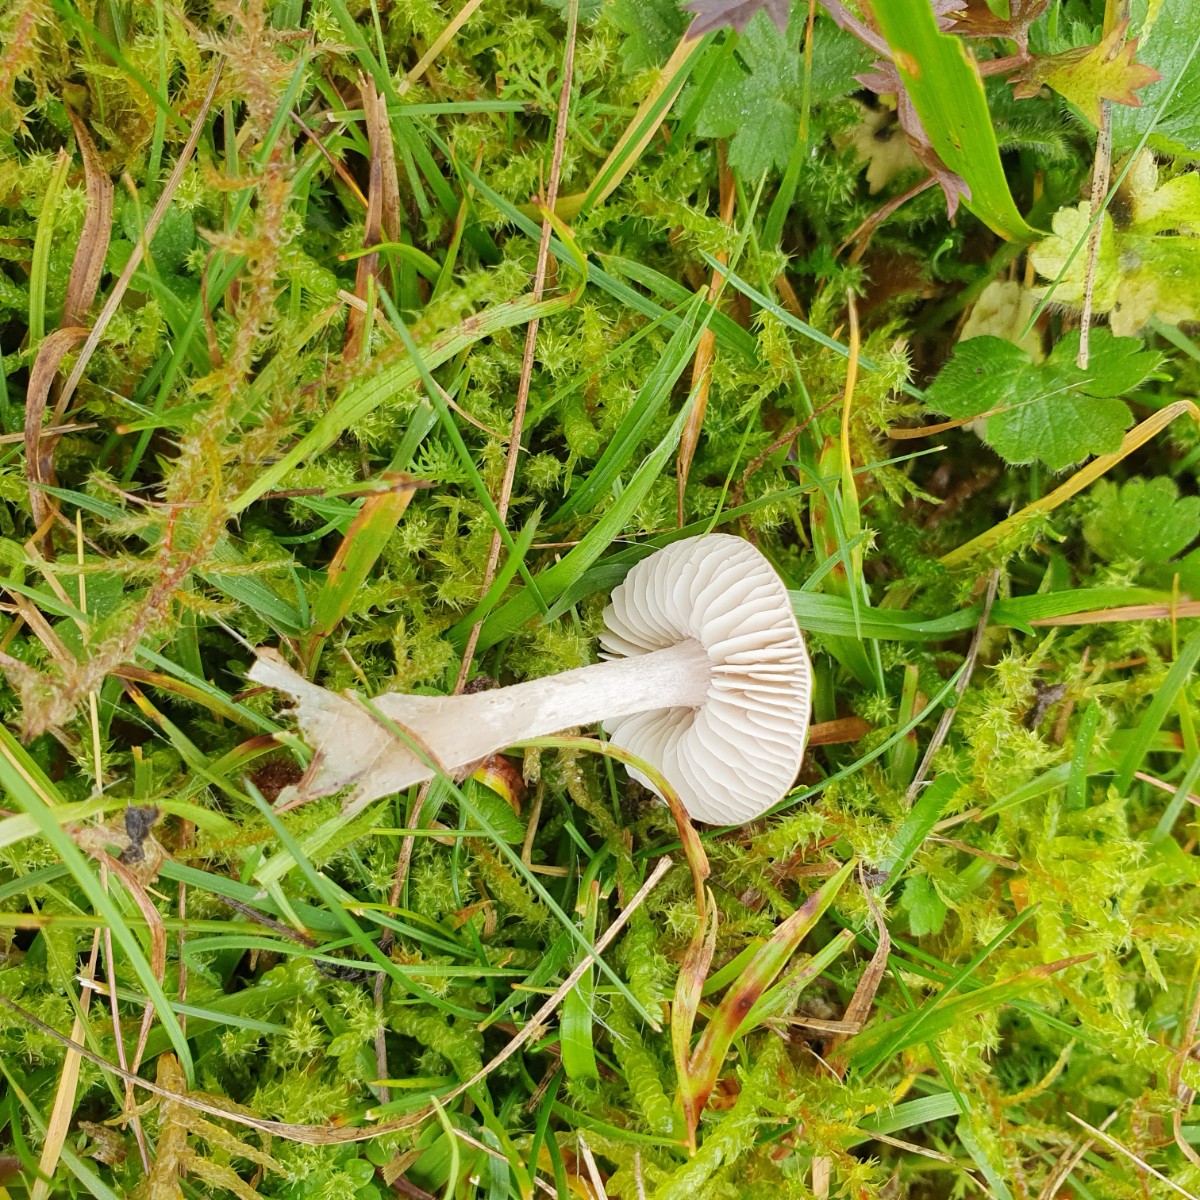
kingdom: Fungi
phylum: Basidiomycota
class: Agaricomycetes
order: Agaricales
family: Tricholomataceae
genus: Dermoloma
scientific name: Dermoloma
